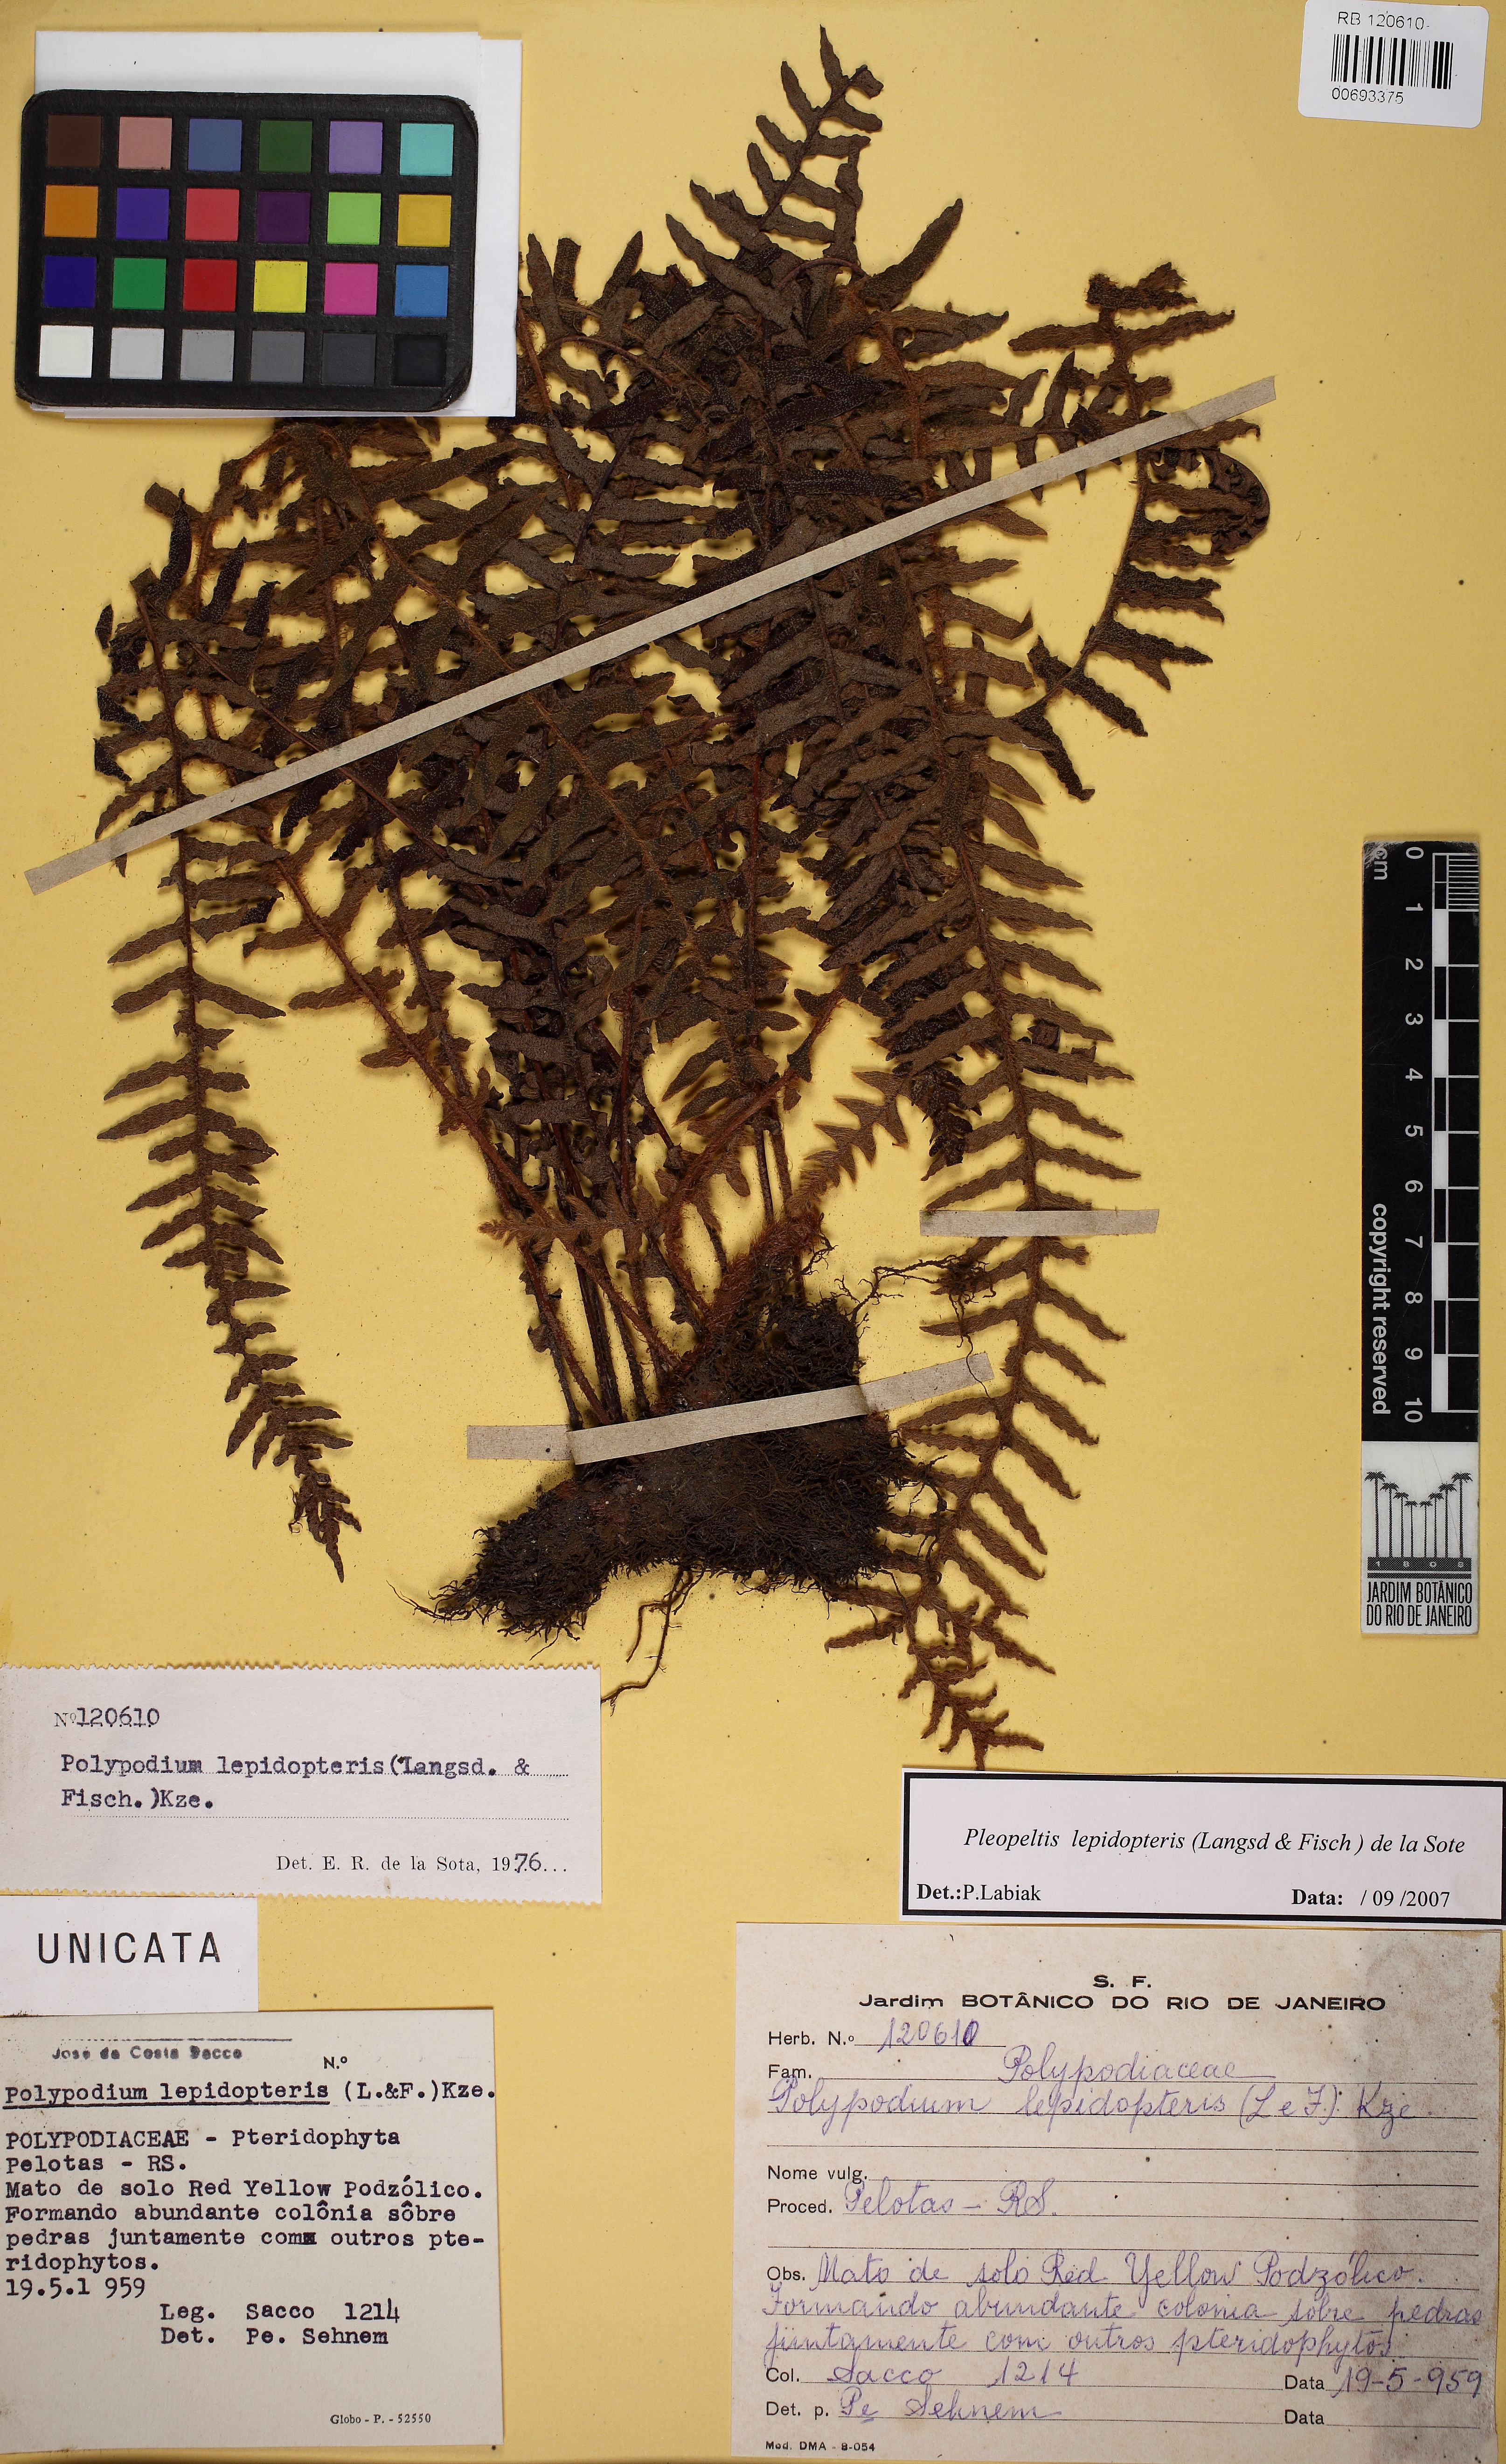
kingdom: Plantae
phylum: Tracheophyta
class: Polypodiopsida
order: Polypodiales
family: Polypodiaceae
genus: Pleopeltis
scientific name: Pleopeltis lepidopteris
